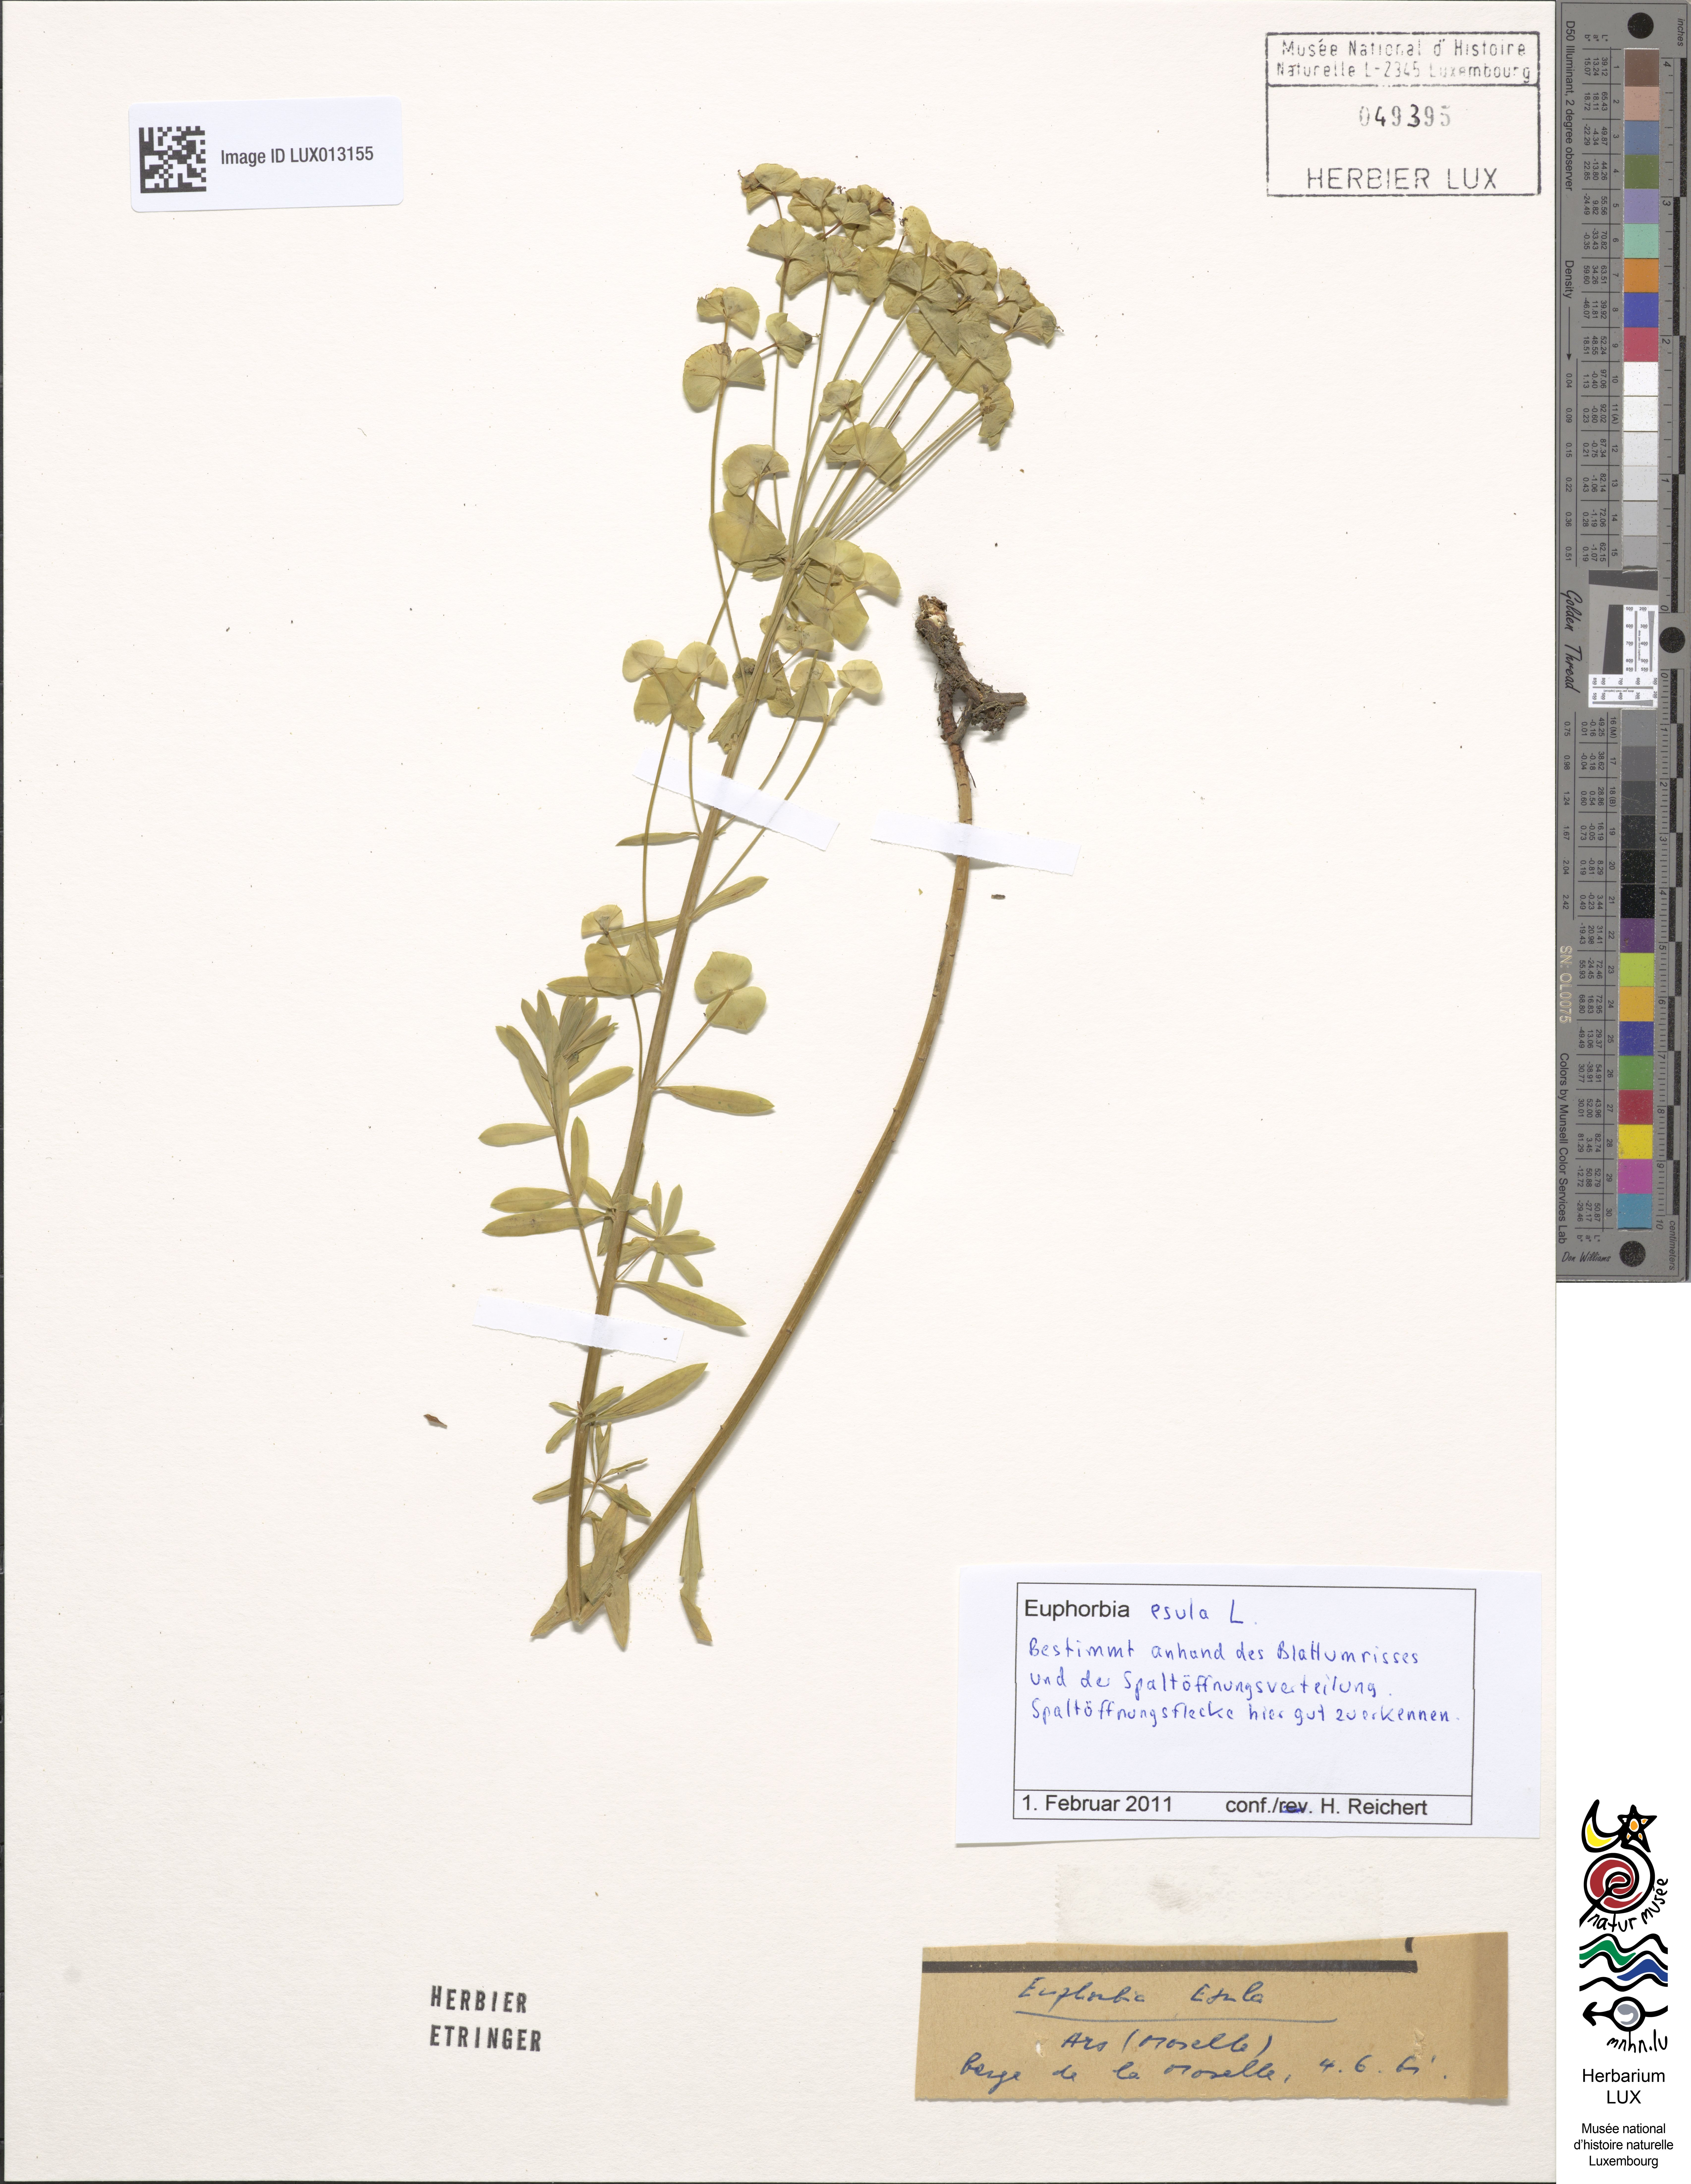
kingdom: Plantae
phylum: Tracheophyta
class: Magnoliopsida
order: Malpighiales
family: Euphorbiaceae
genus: Euphorbia
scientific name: Euphorbia esula
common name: Leafy spurge
